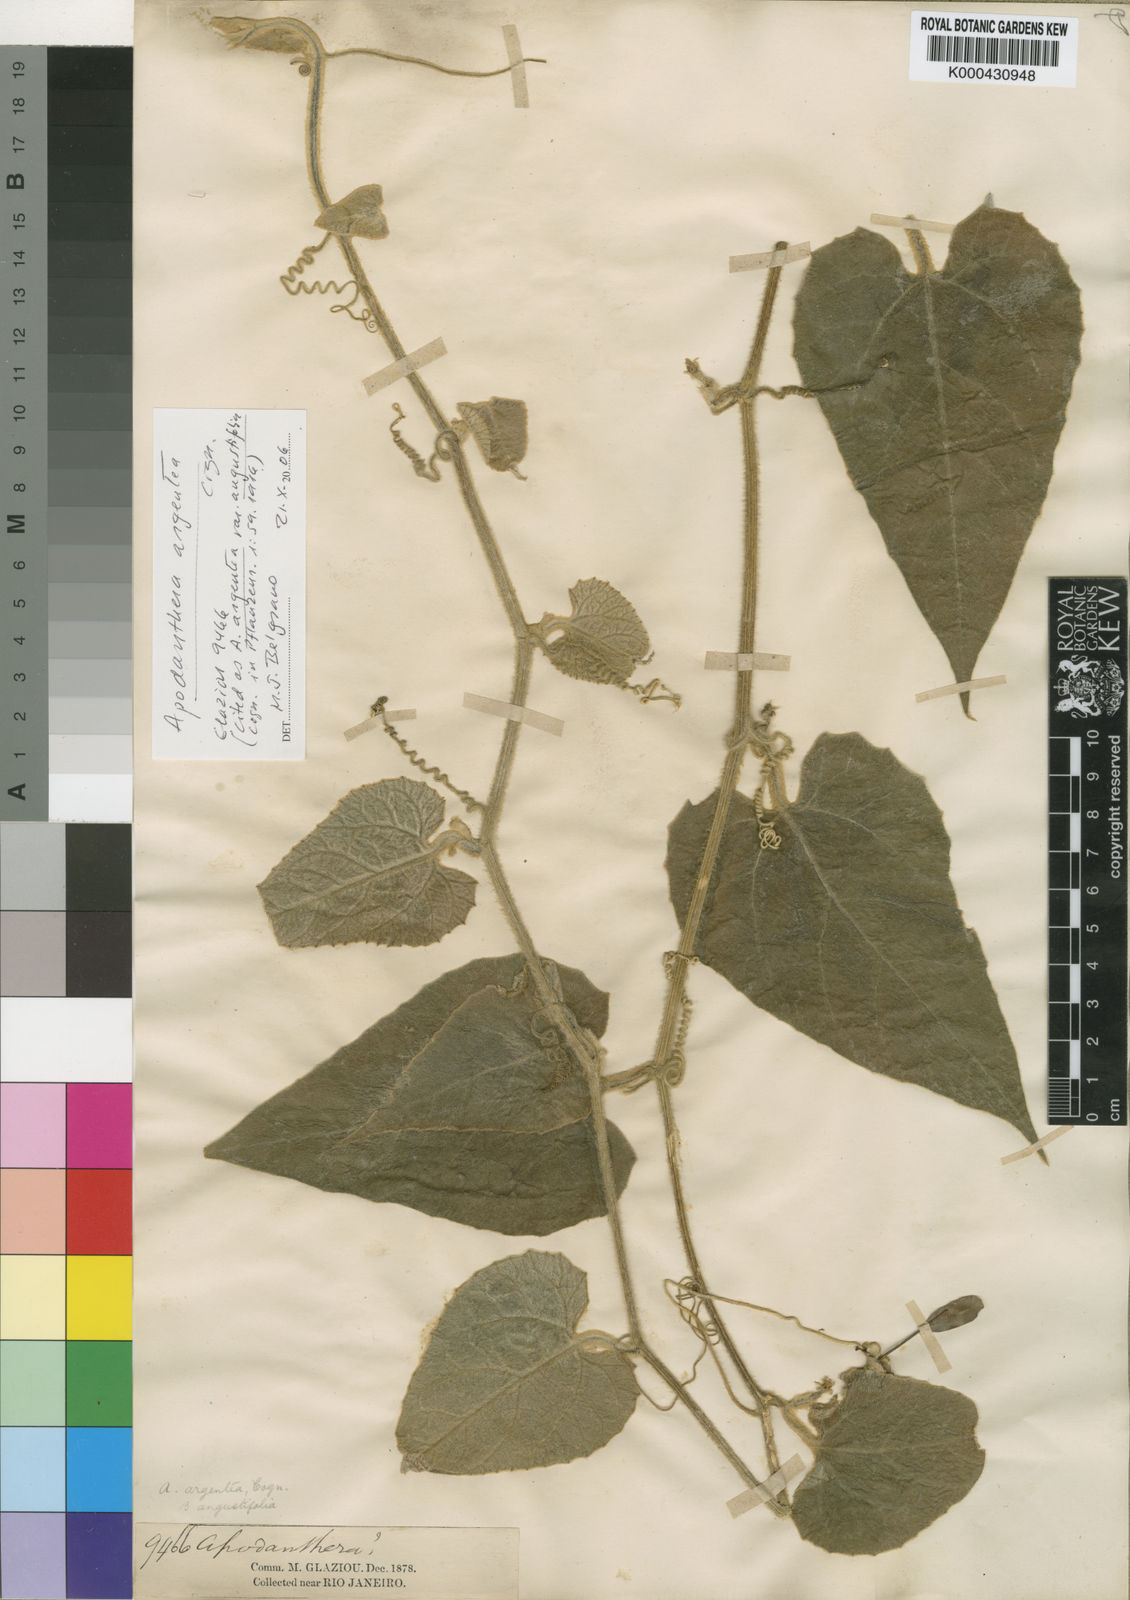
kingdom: Plantae
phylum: Tracheophyta
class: Magnoliopsida
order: Cucurbitales
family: Cucurbitaceae
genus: Apodanthera
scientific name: Apodanthera argentea
